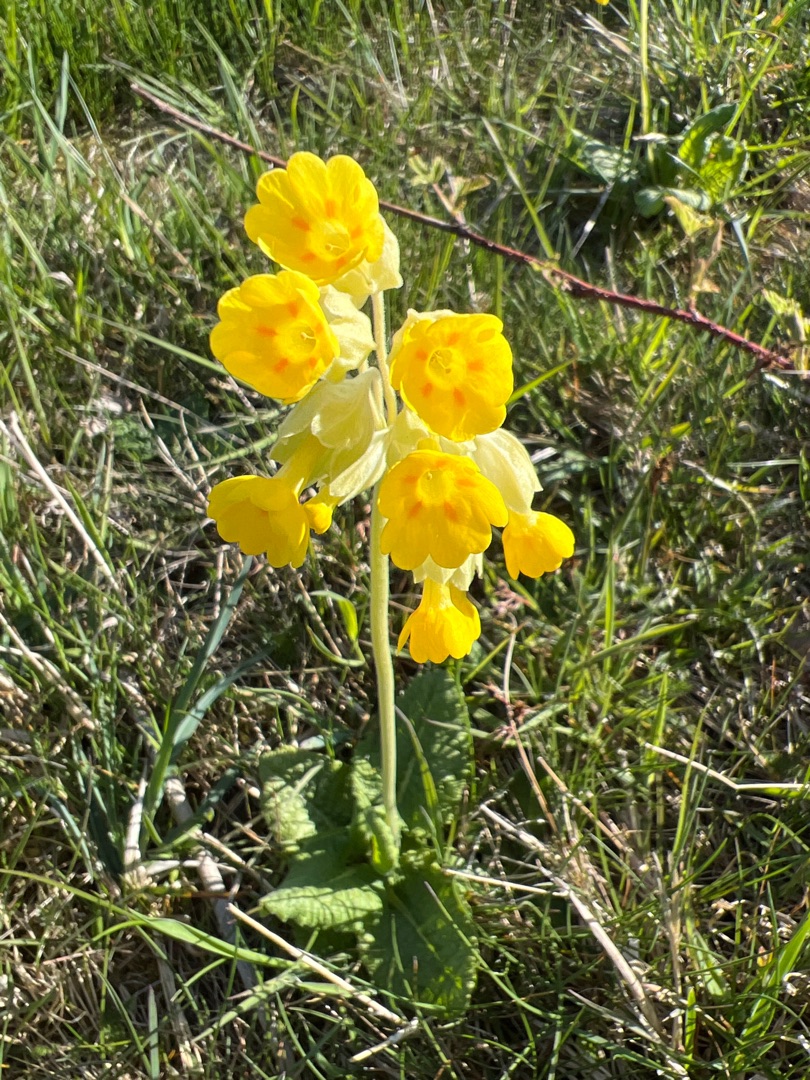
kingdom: Plantae
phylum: Tracheophyta
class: Magnoliopsida
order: Ericales
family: Primulaceae
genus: Primula
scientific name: Primula veris
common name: Hulkravet kodriver
